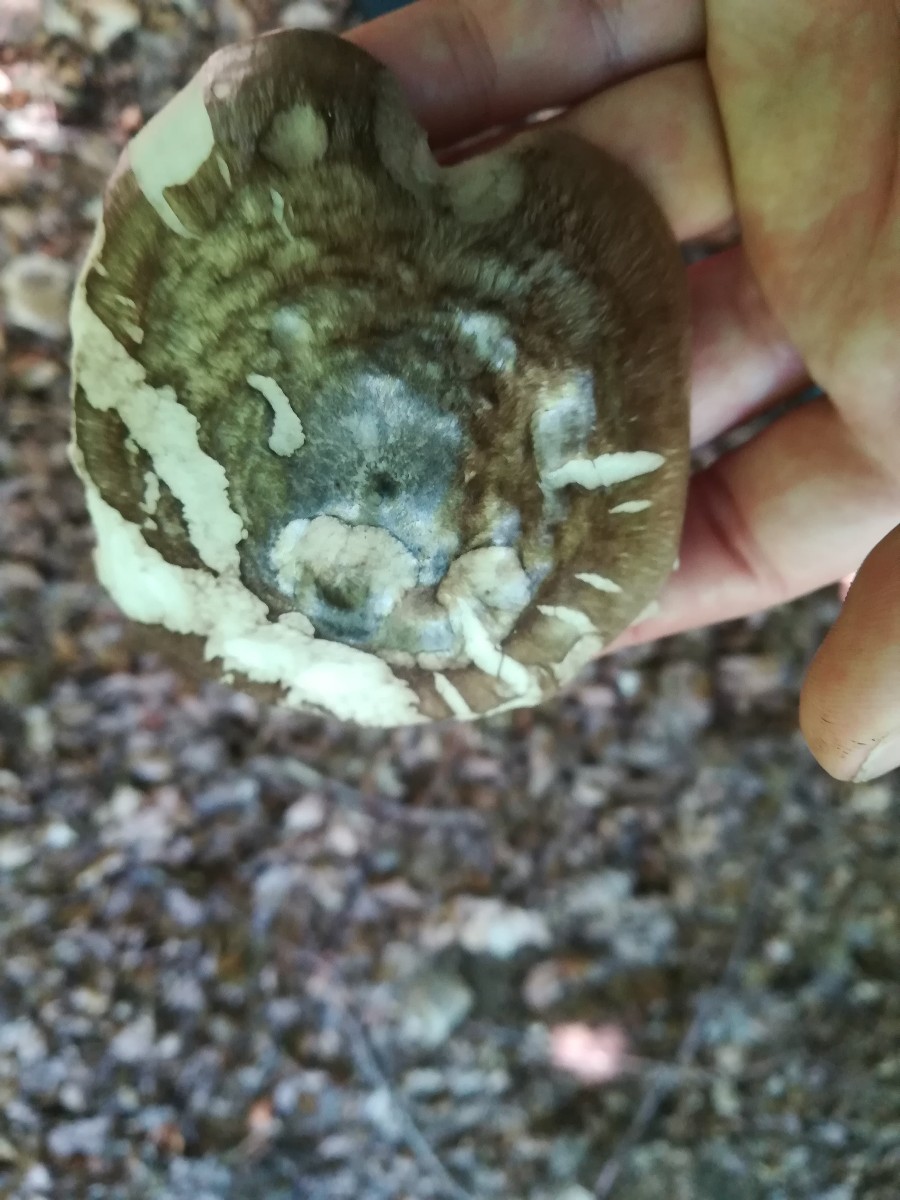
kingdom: Fungi
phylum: Basidiomycota
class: Agaricomycetes
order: Agaricales
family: Pluteaceae
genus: Pluteus
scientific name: Pluteus cervinus
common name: sodfarvet skærmhat
